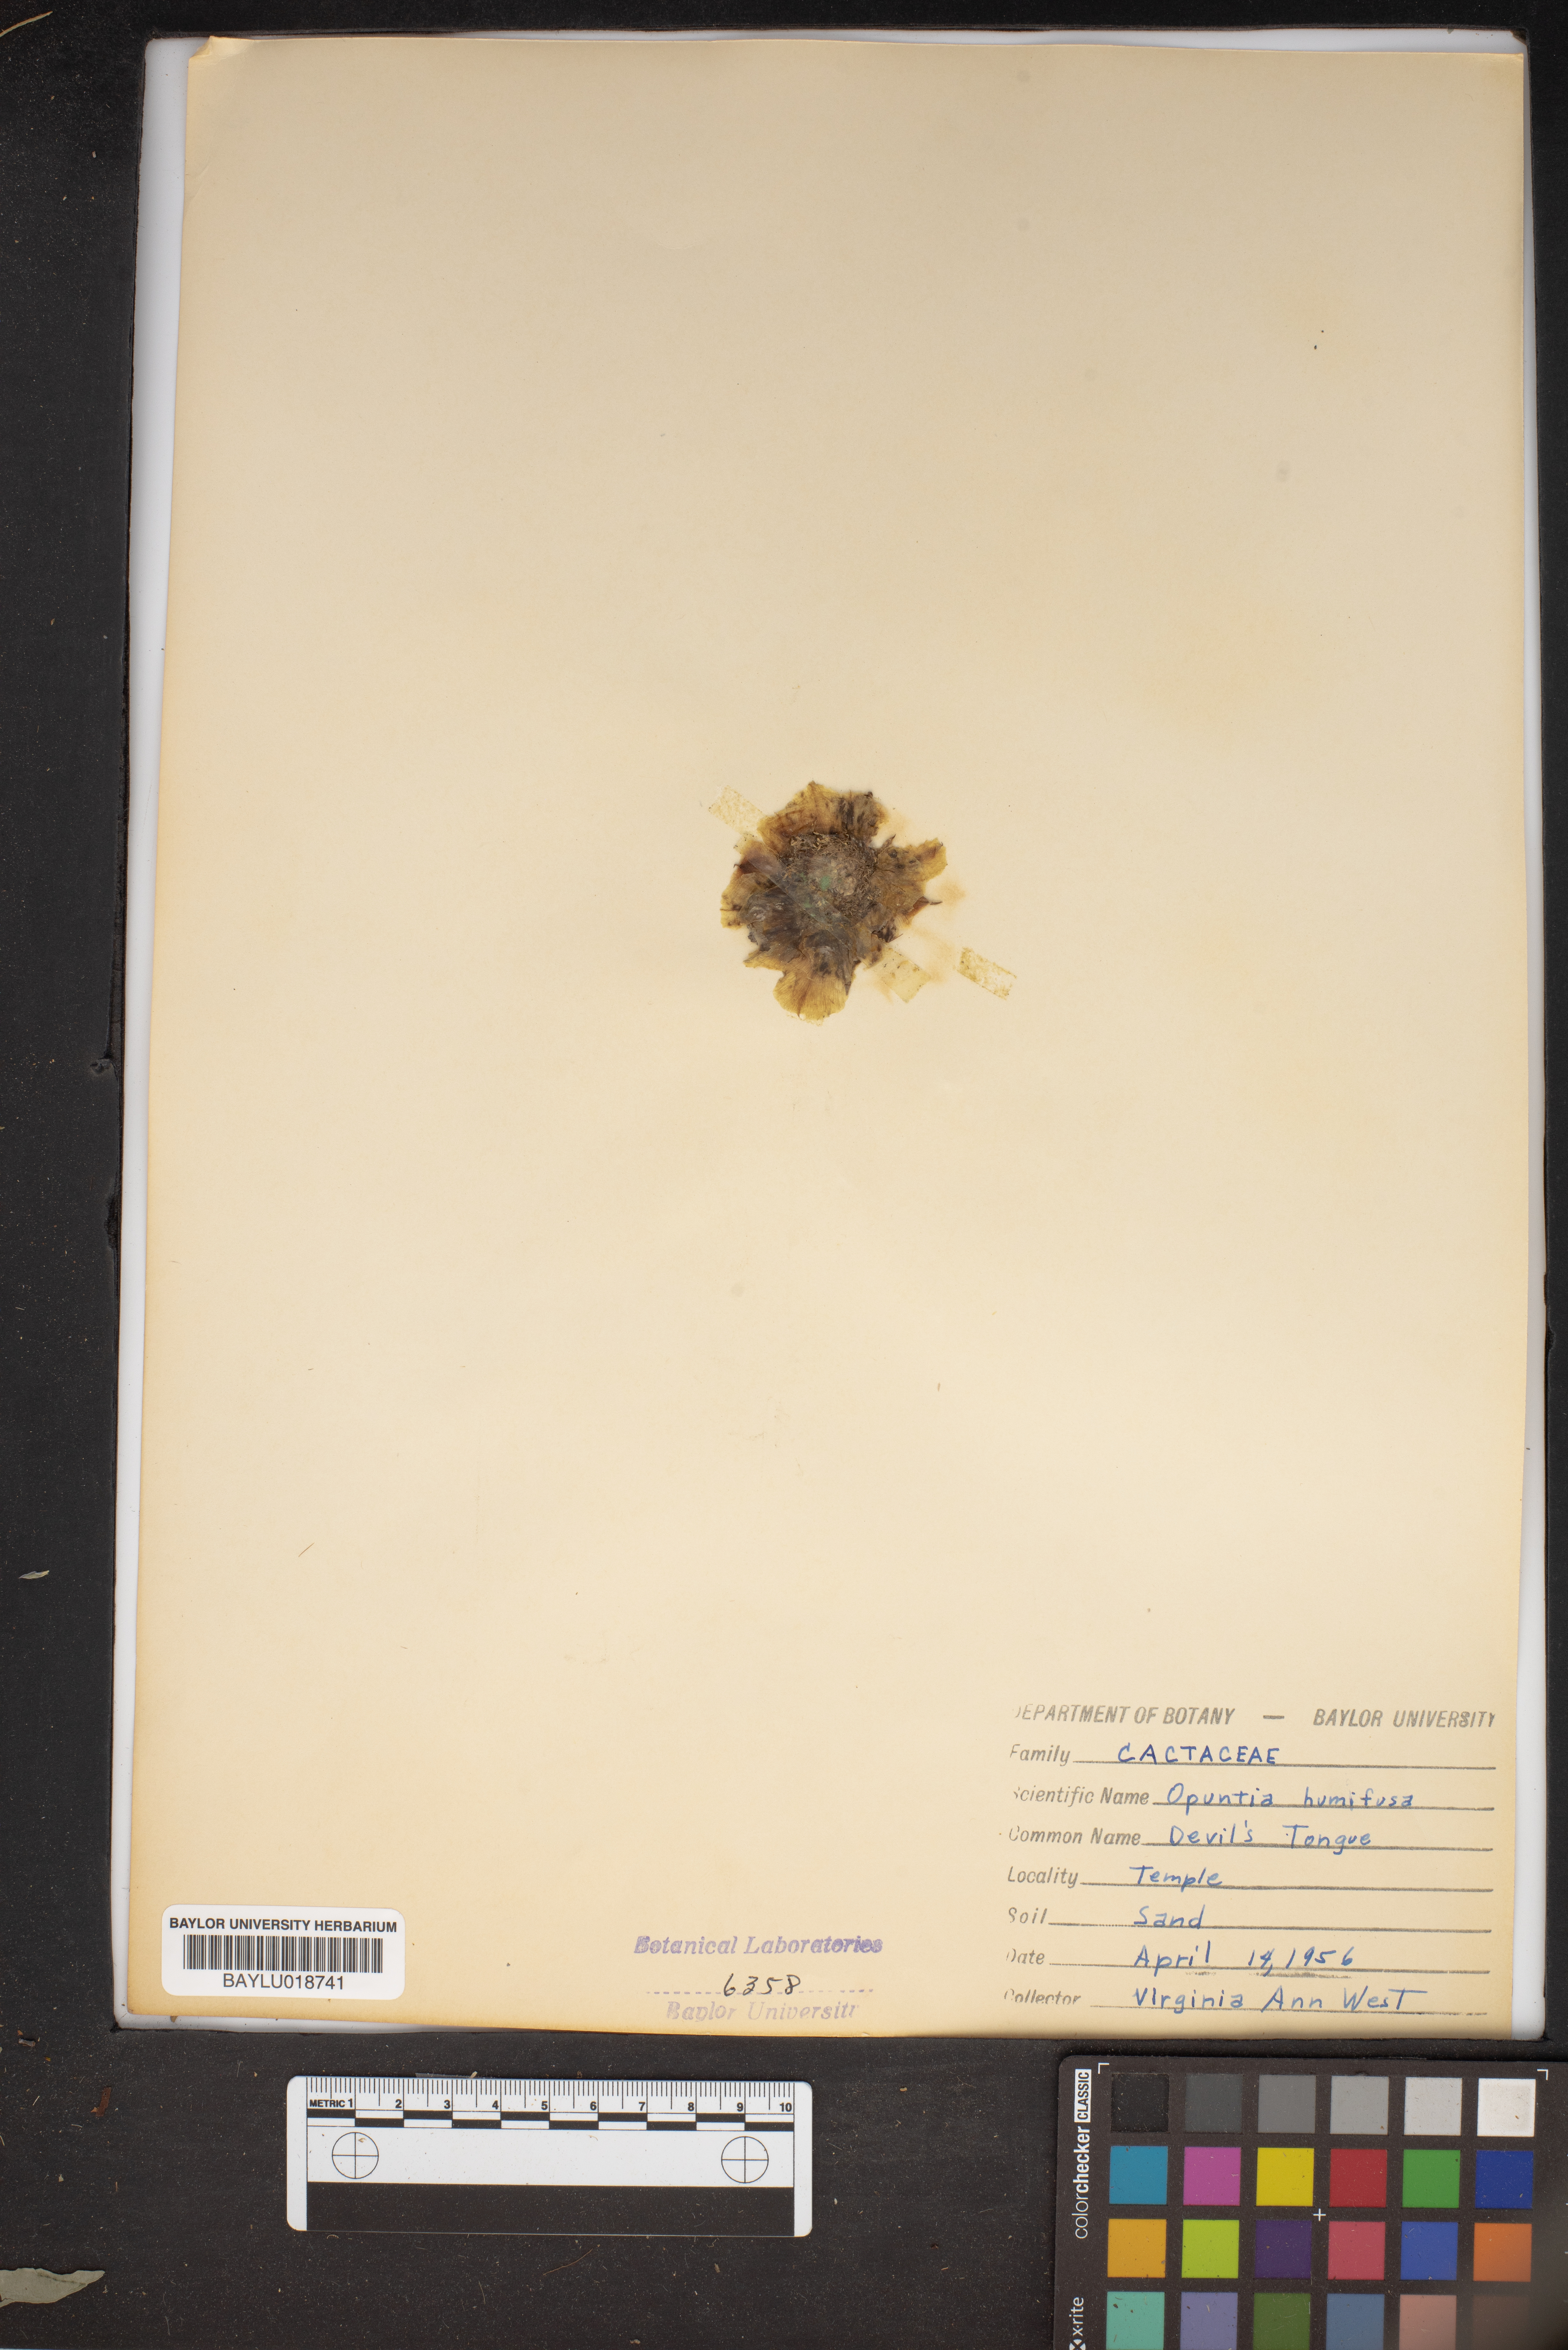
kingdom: Plantae
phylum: Tracheophyta
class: Magnoliopsida
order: Caryophyllales
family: Cactaceae
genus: Opuntia
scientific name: Opuntia humifusa
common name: Eastern prickly-pear
